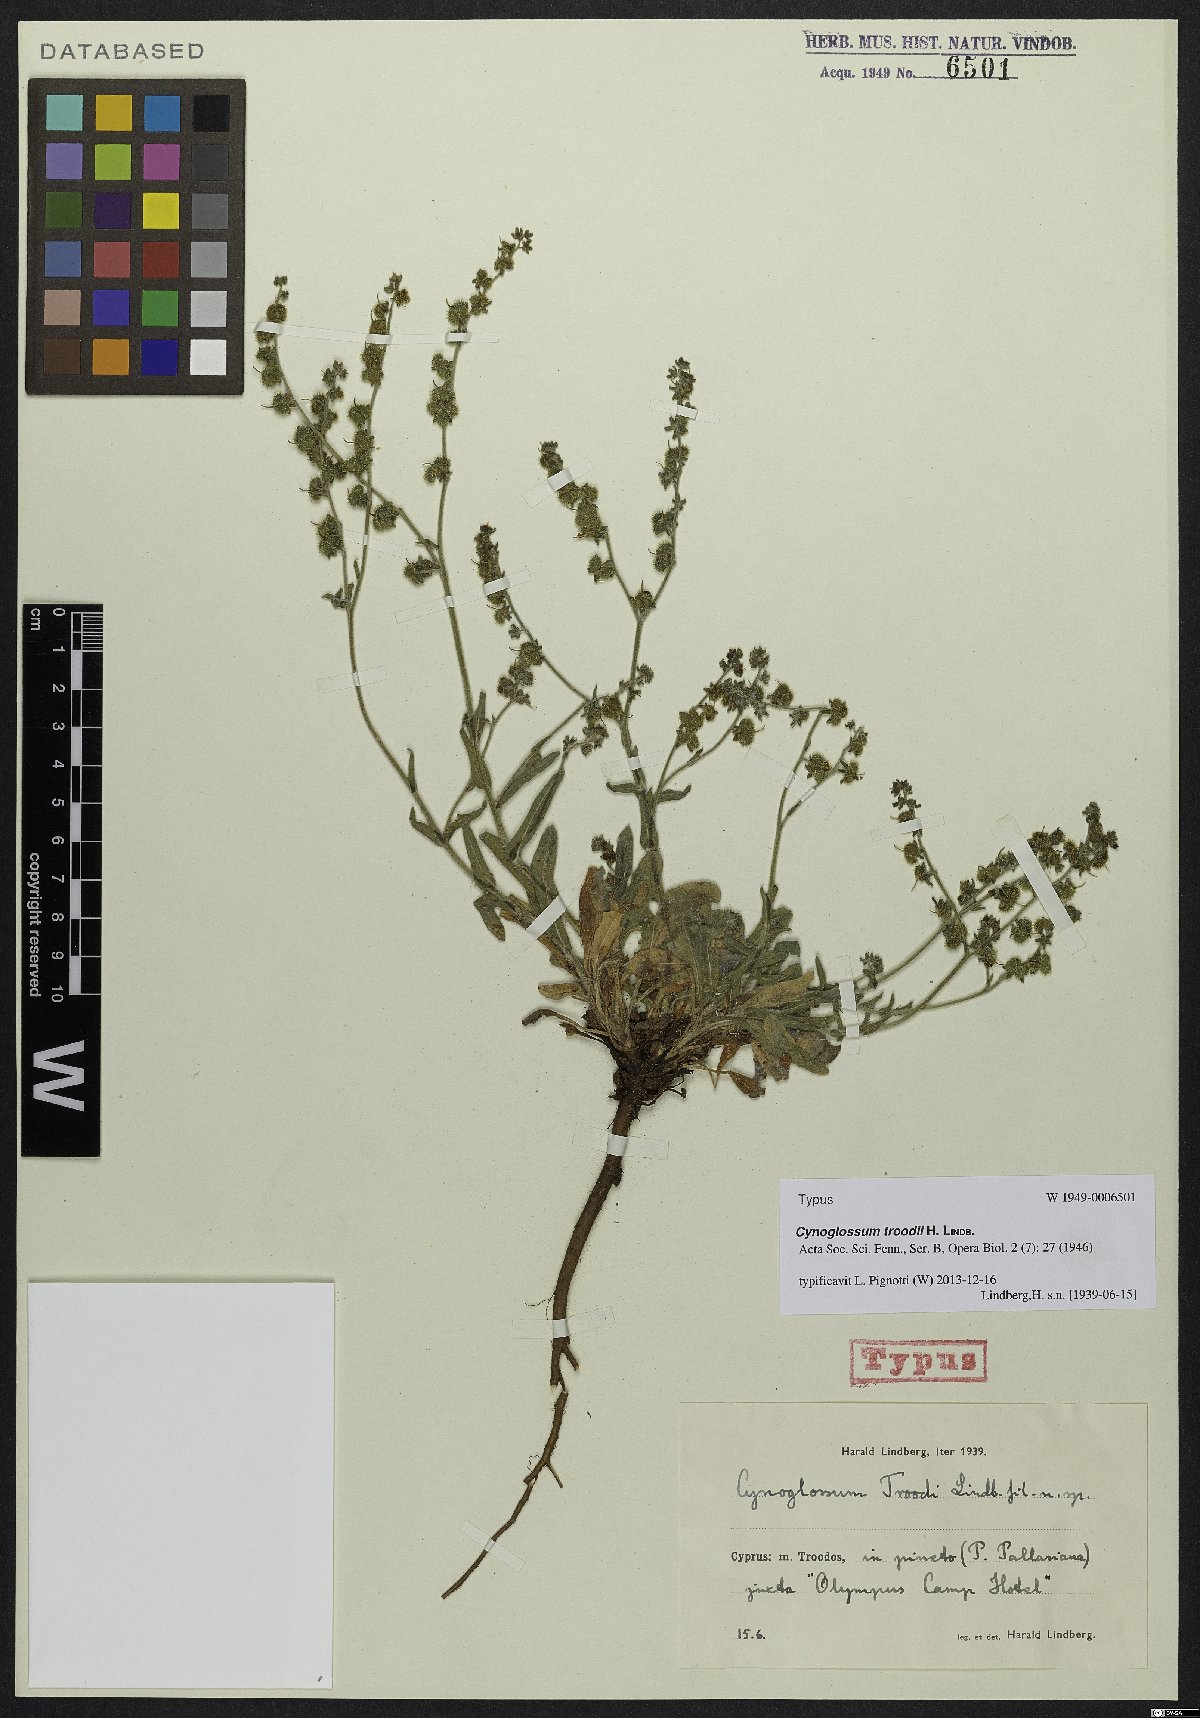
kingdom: Plantae
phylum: Tracheophyta
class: Magnoliopsida
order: Boraginales
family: Boraginaceae
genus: Paracaryum
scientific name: Paracaryum lithospermifolium
